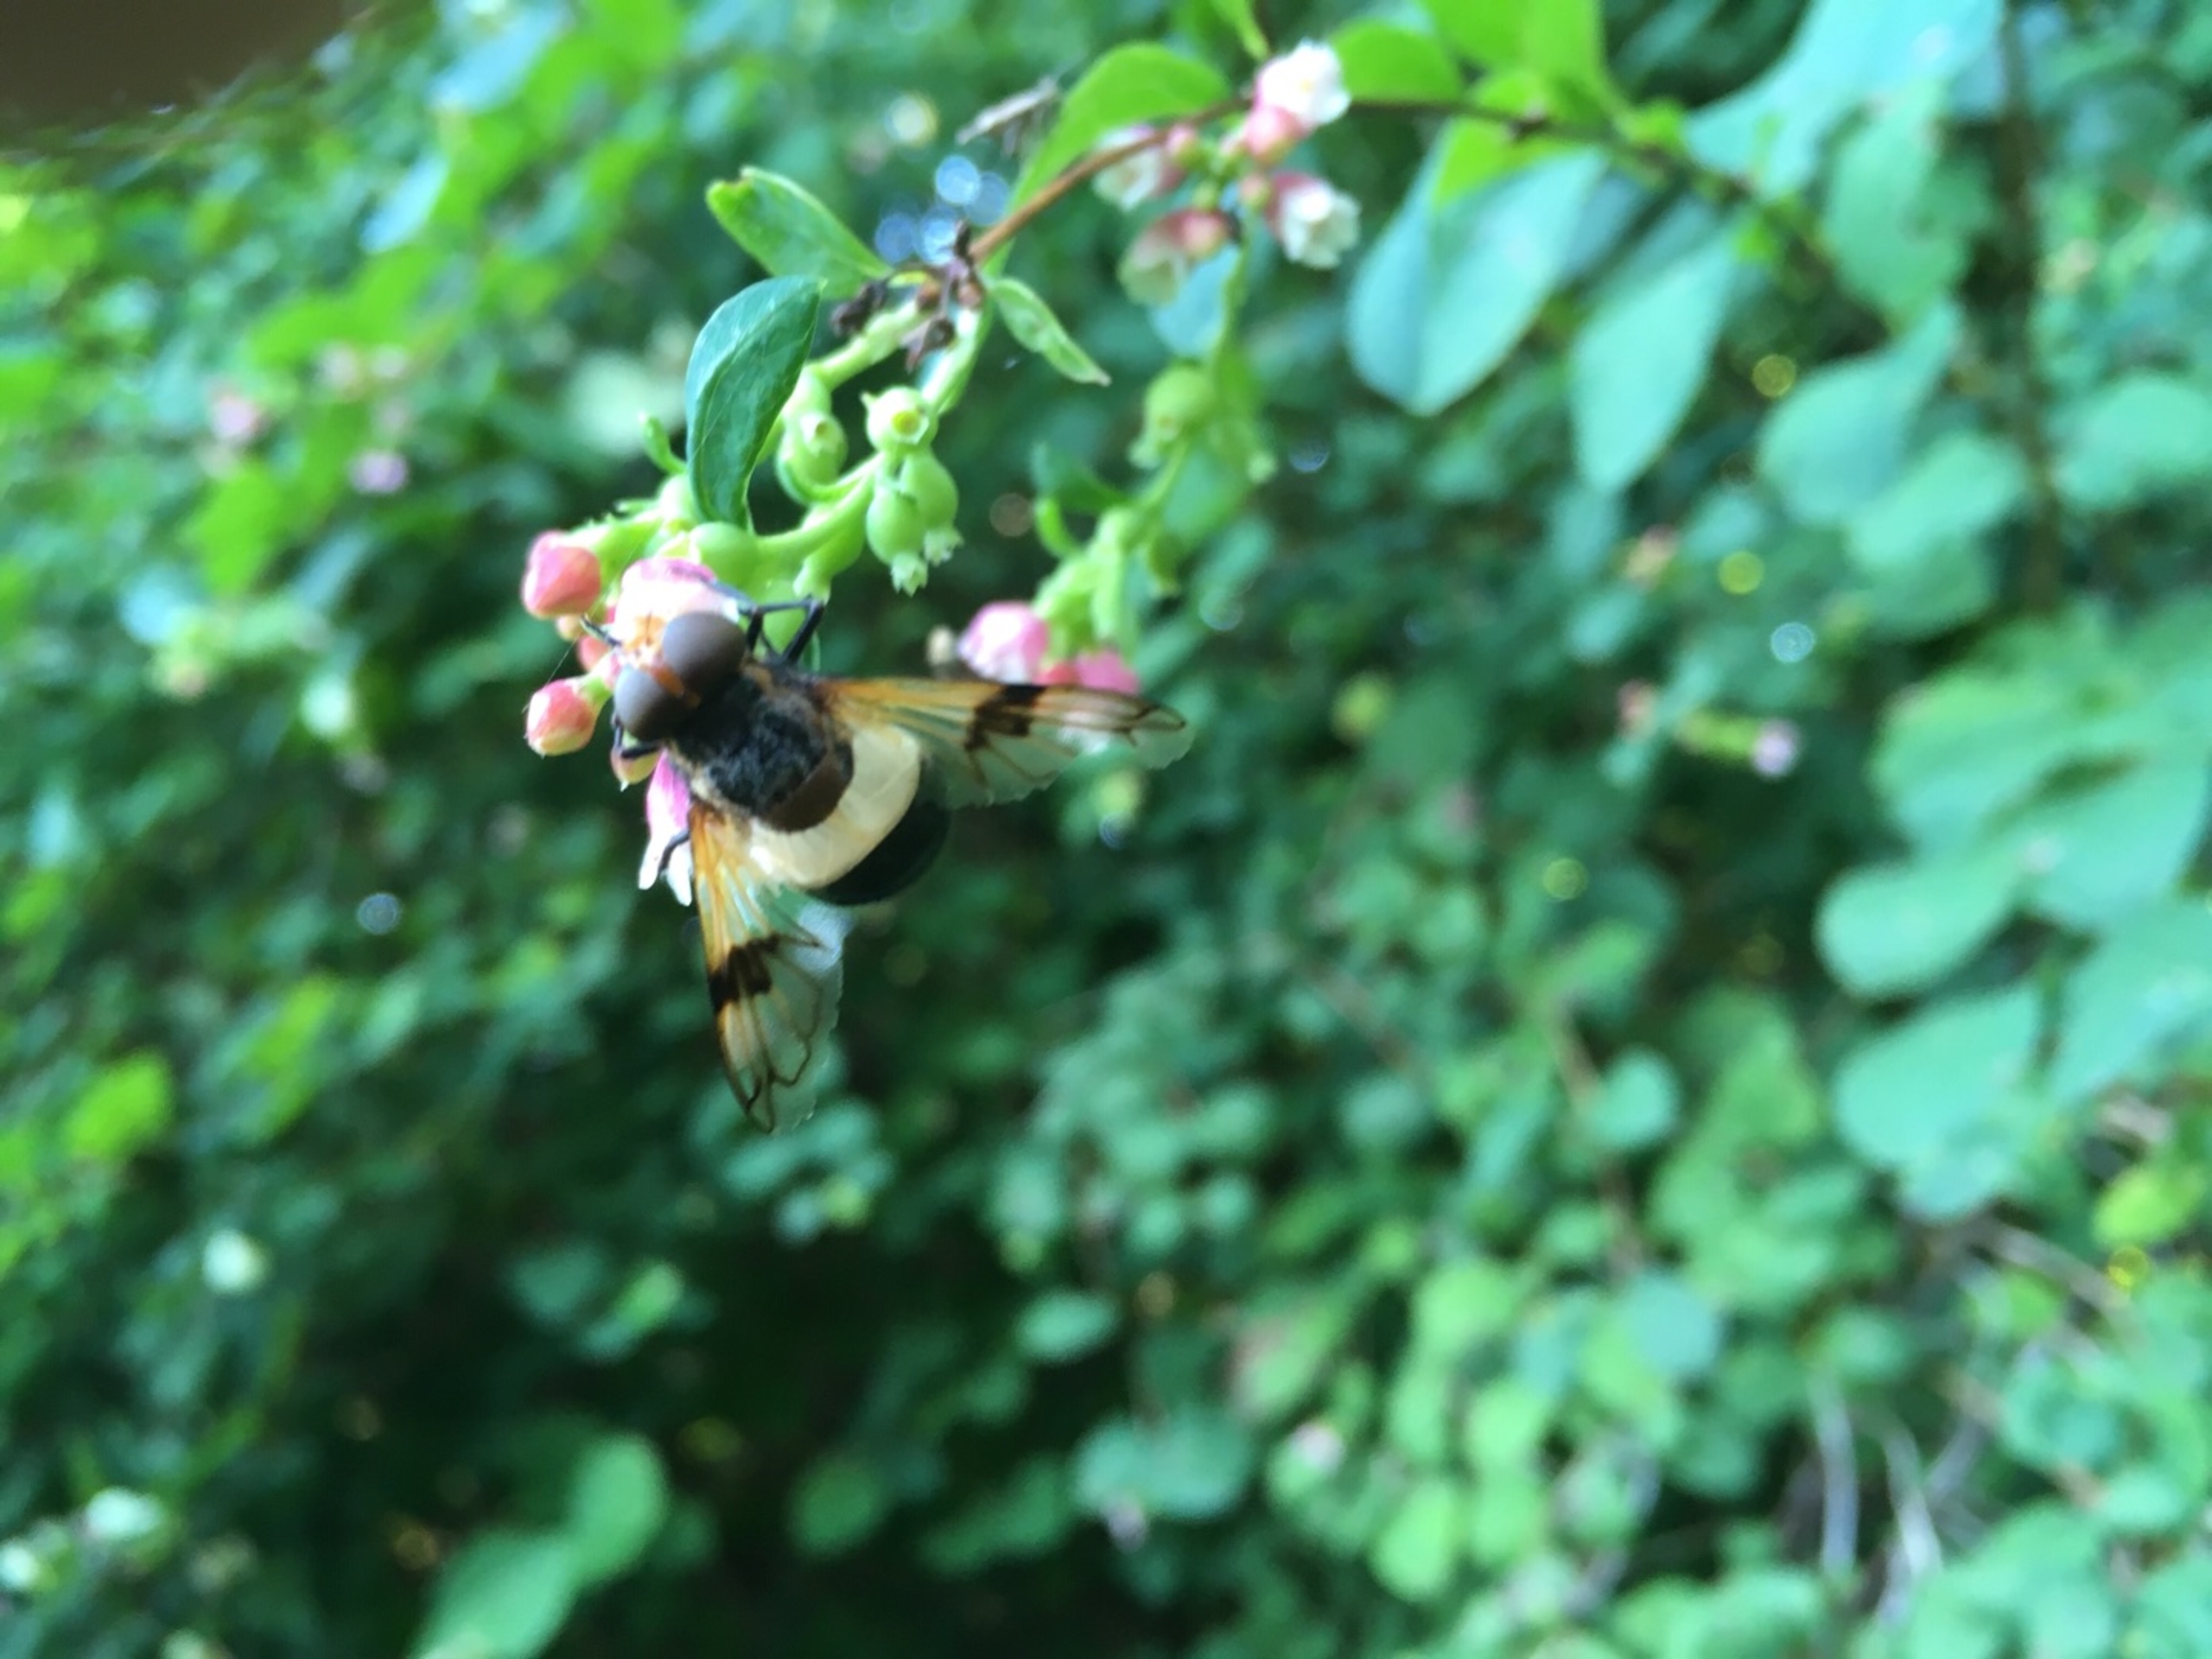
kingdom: Animalia
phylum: Arthropoda
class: Insecta
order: Diptera
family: Syrphidae
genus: Volucella
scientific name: Volucella pellucens
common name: Hvidbåndet humlesvirreflue
